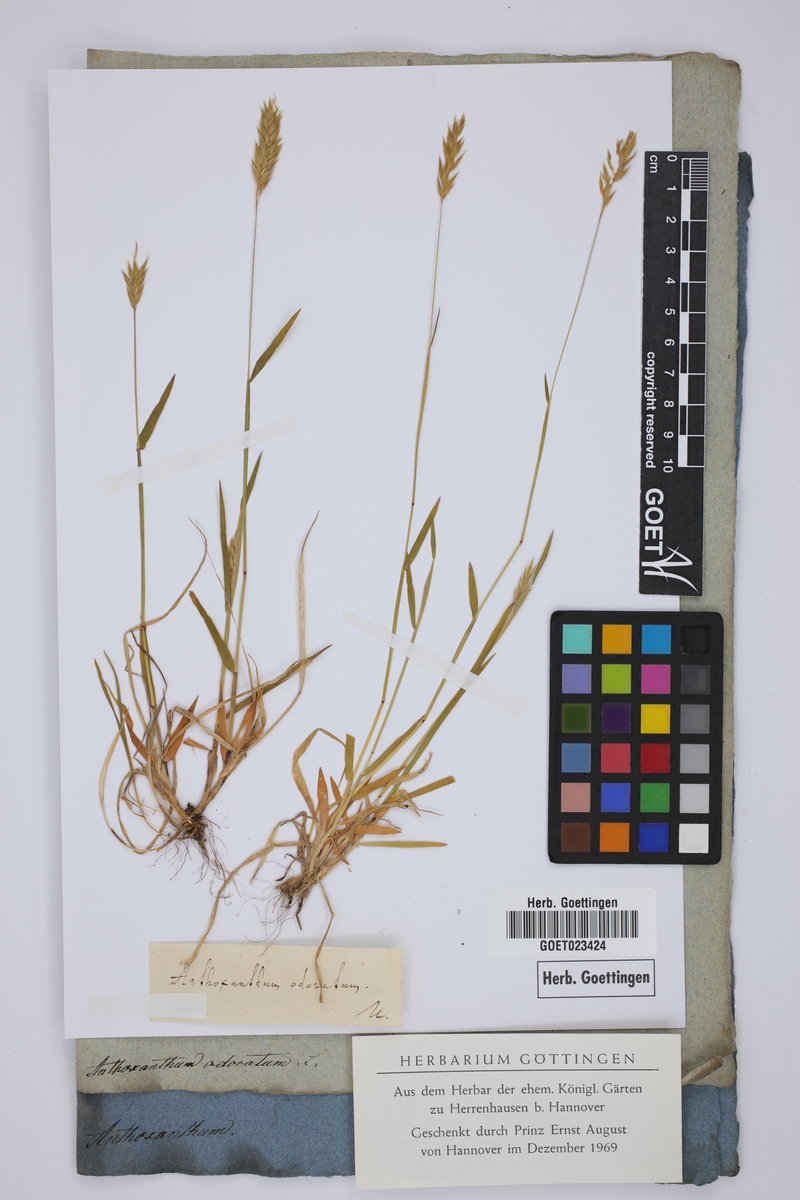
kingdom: Plantae
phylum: Tracheophyta
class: Liliopsida
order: Poales
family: Poaceae
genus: Anthoxanthum
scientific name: Anthoxanthum odoratum
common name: Sweet vernalgrass
